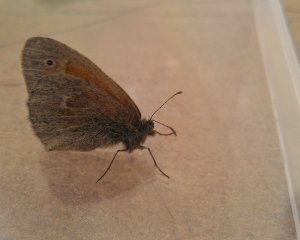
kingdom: Animalia
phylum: Arthropoda
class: Insecta
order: Lepidoptera
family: Nymphalidae
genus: Coenonympha
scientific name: Coenonympha tullia
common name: Large Heath
